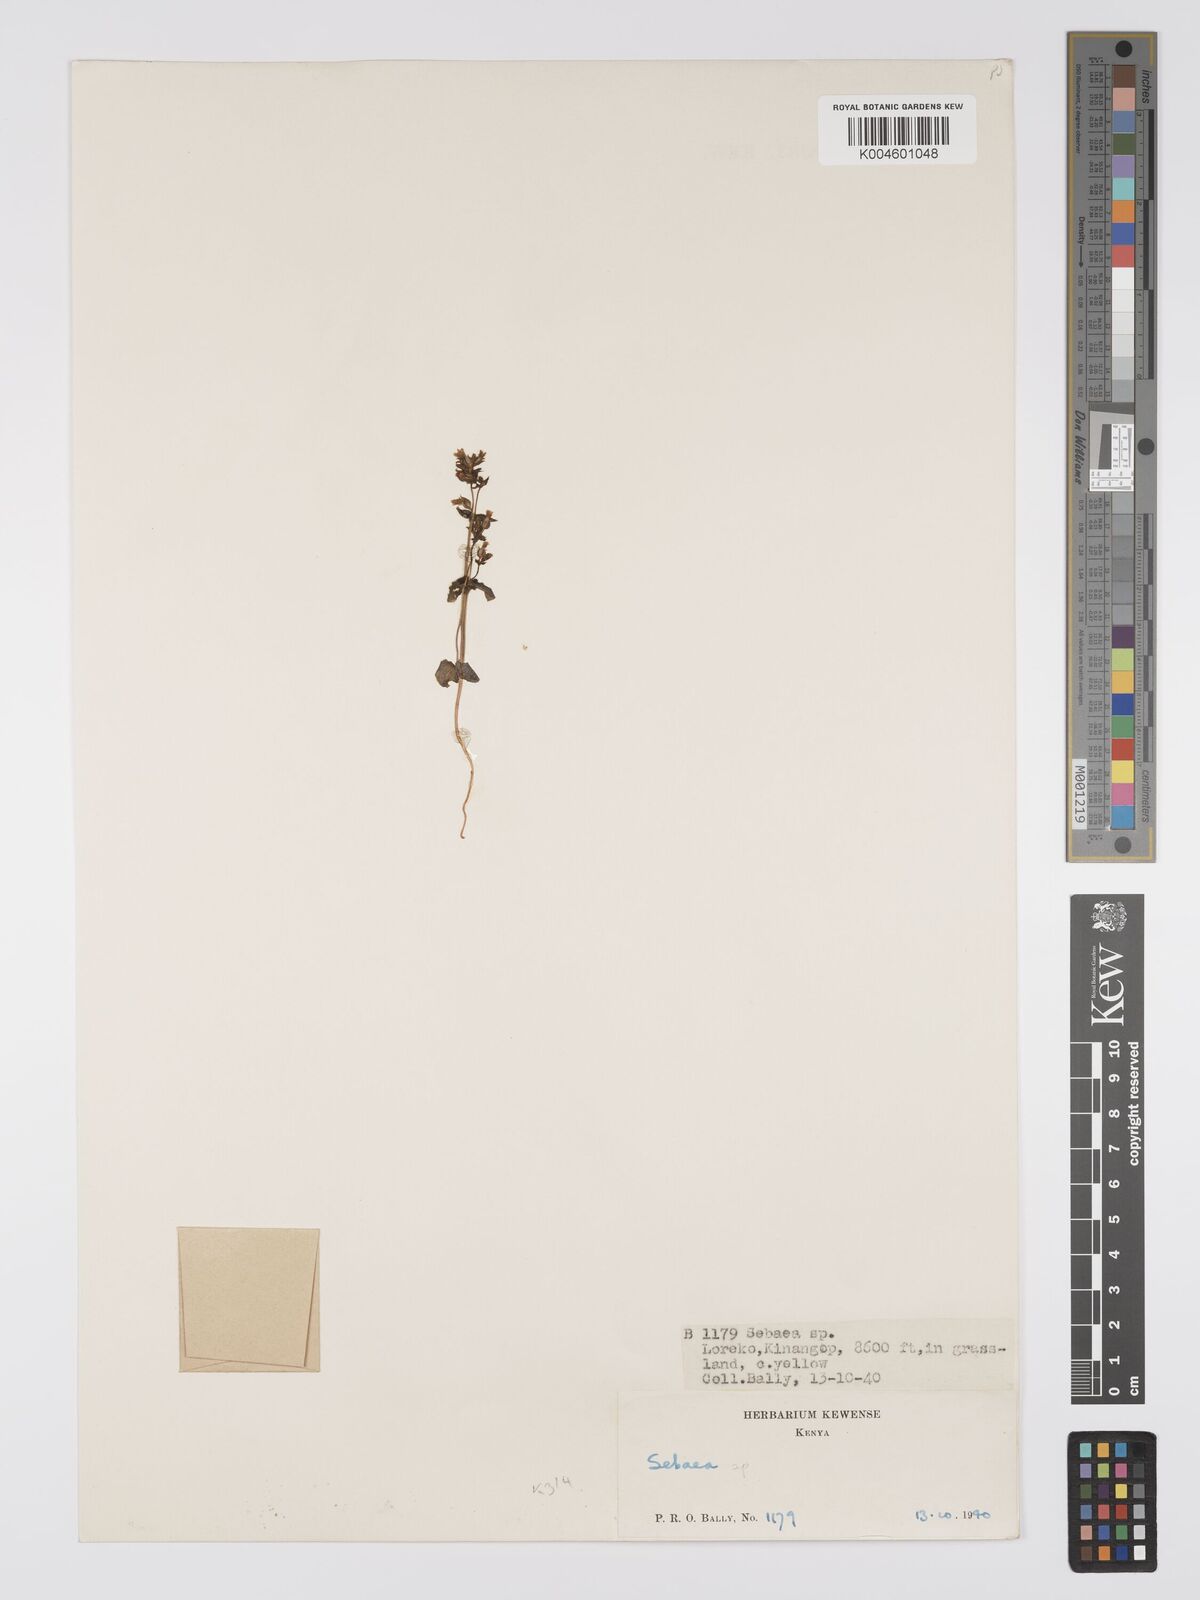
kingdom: Plantae
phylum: Tracheophyta
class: Magnoliopsida
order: Gentianales
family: Gentianaceae
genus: Sebaea
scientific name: Sebaea brachyphylla
